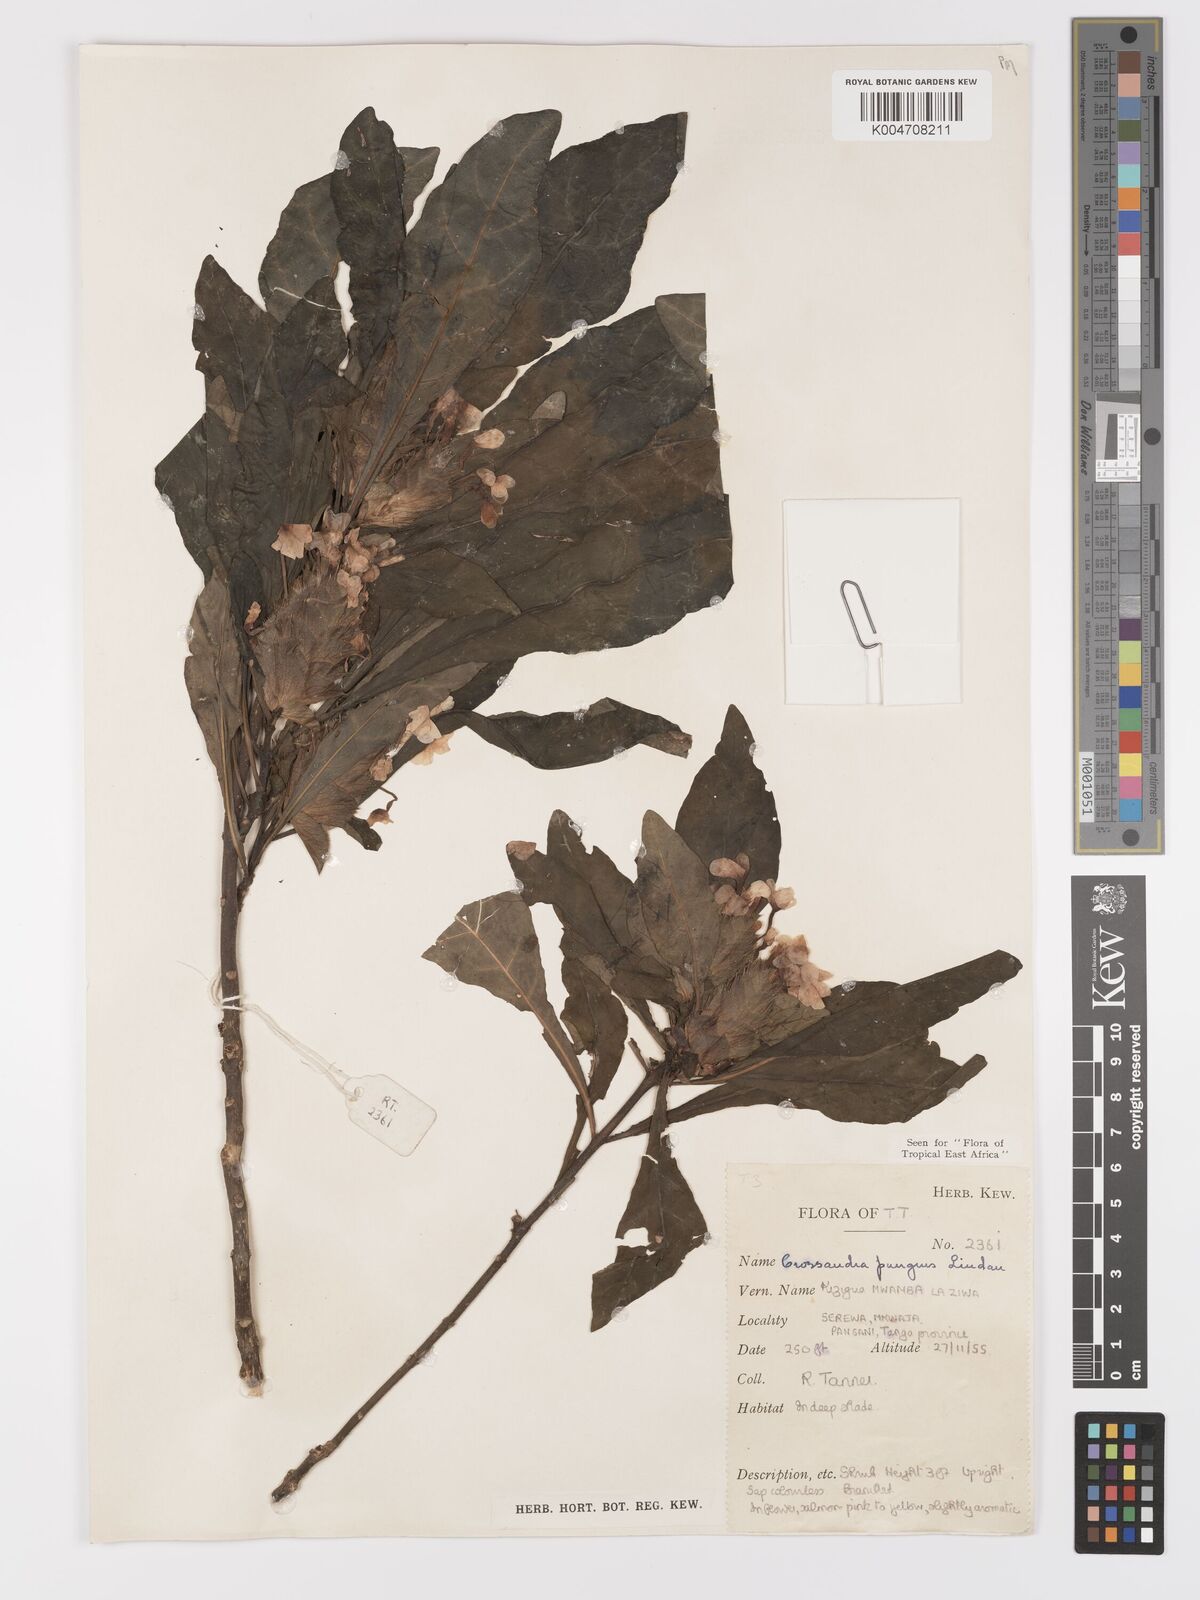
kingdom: Plantae
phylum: Tracheophyta
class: Magnoliopsida
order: Lamiales
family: Acanthaceae
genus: Crossandra
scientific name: Crossandra pungens
